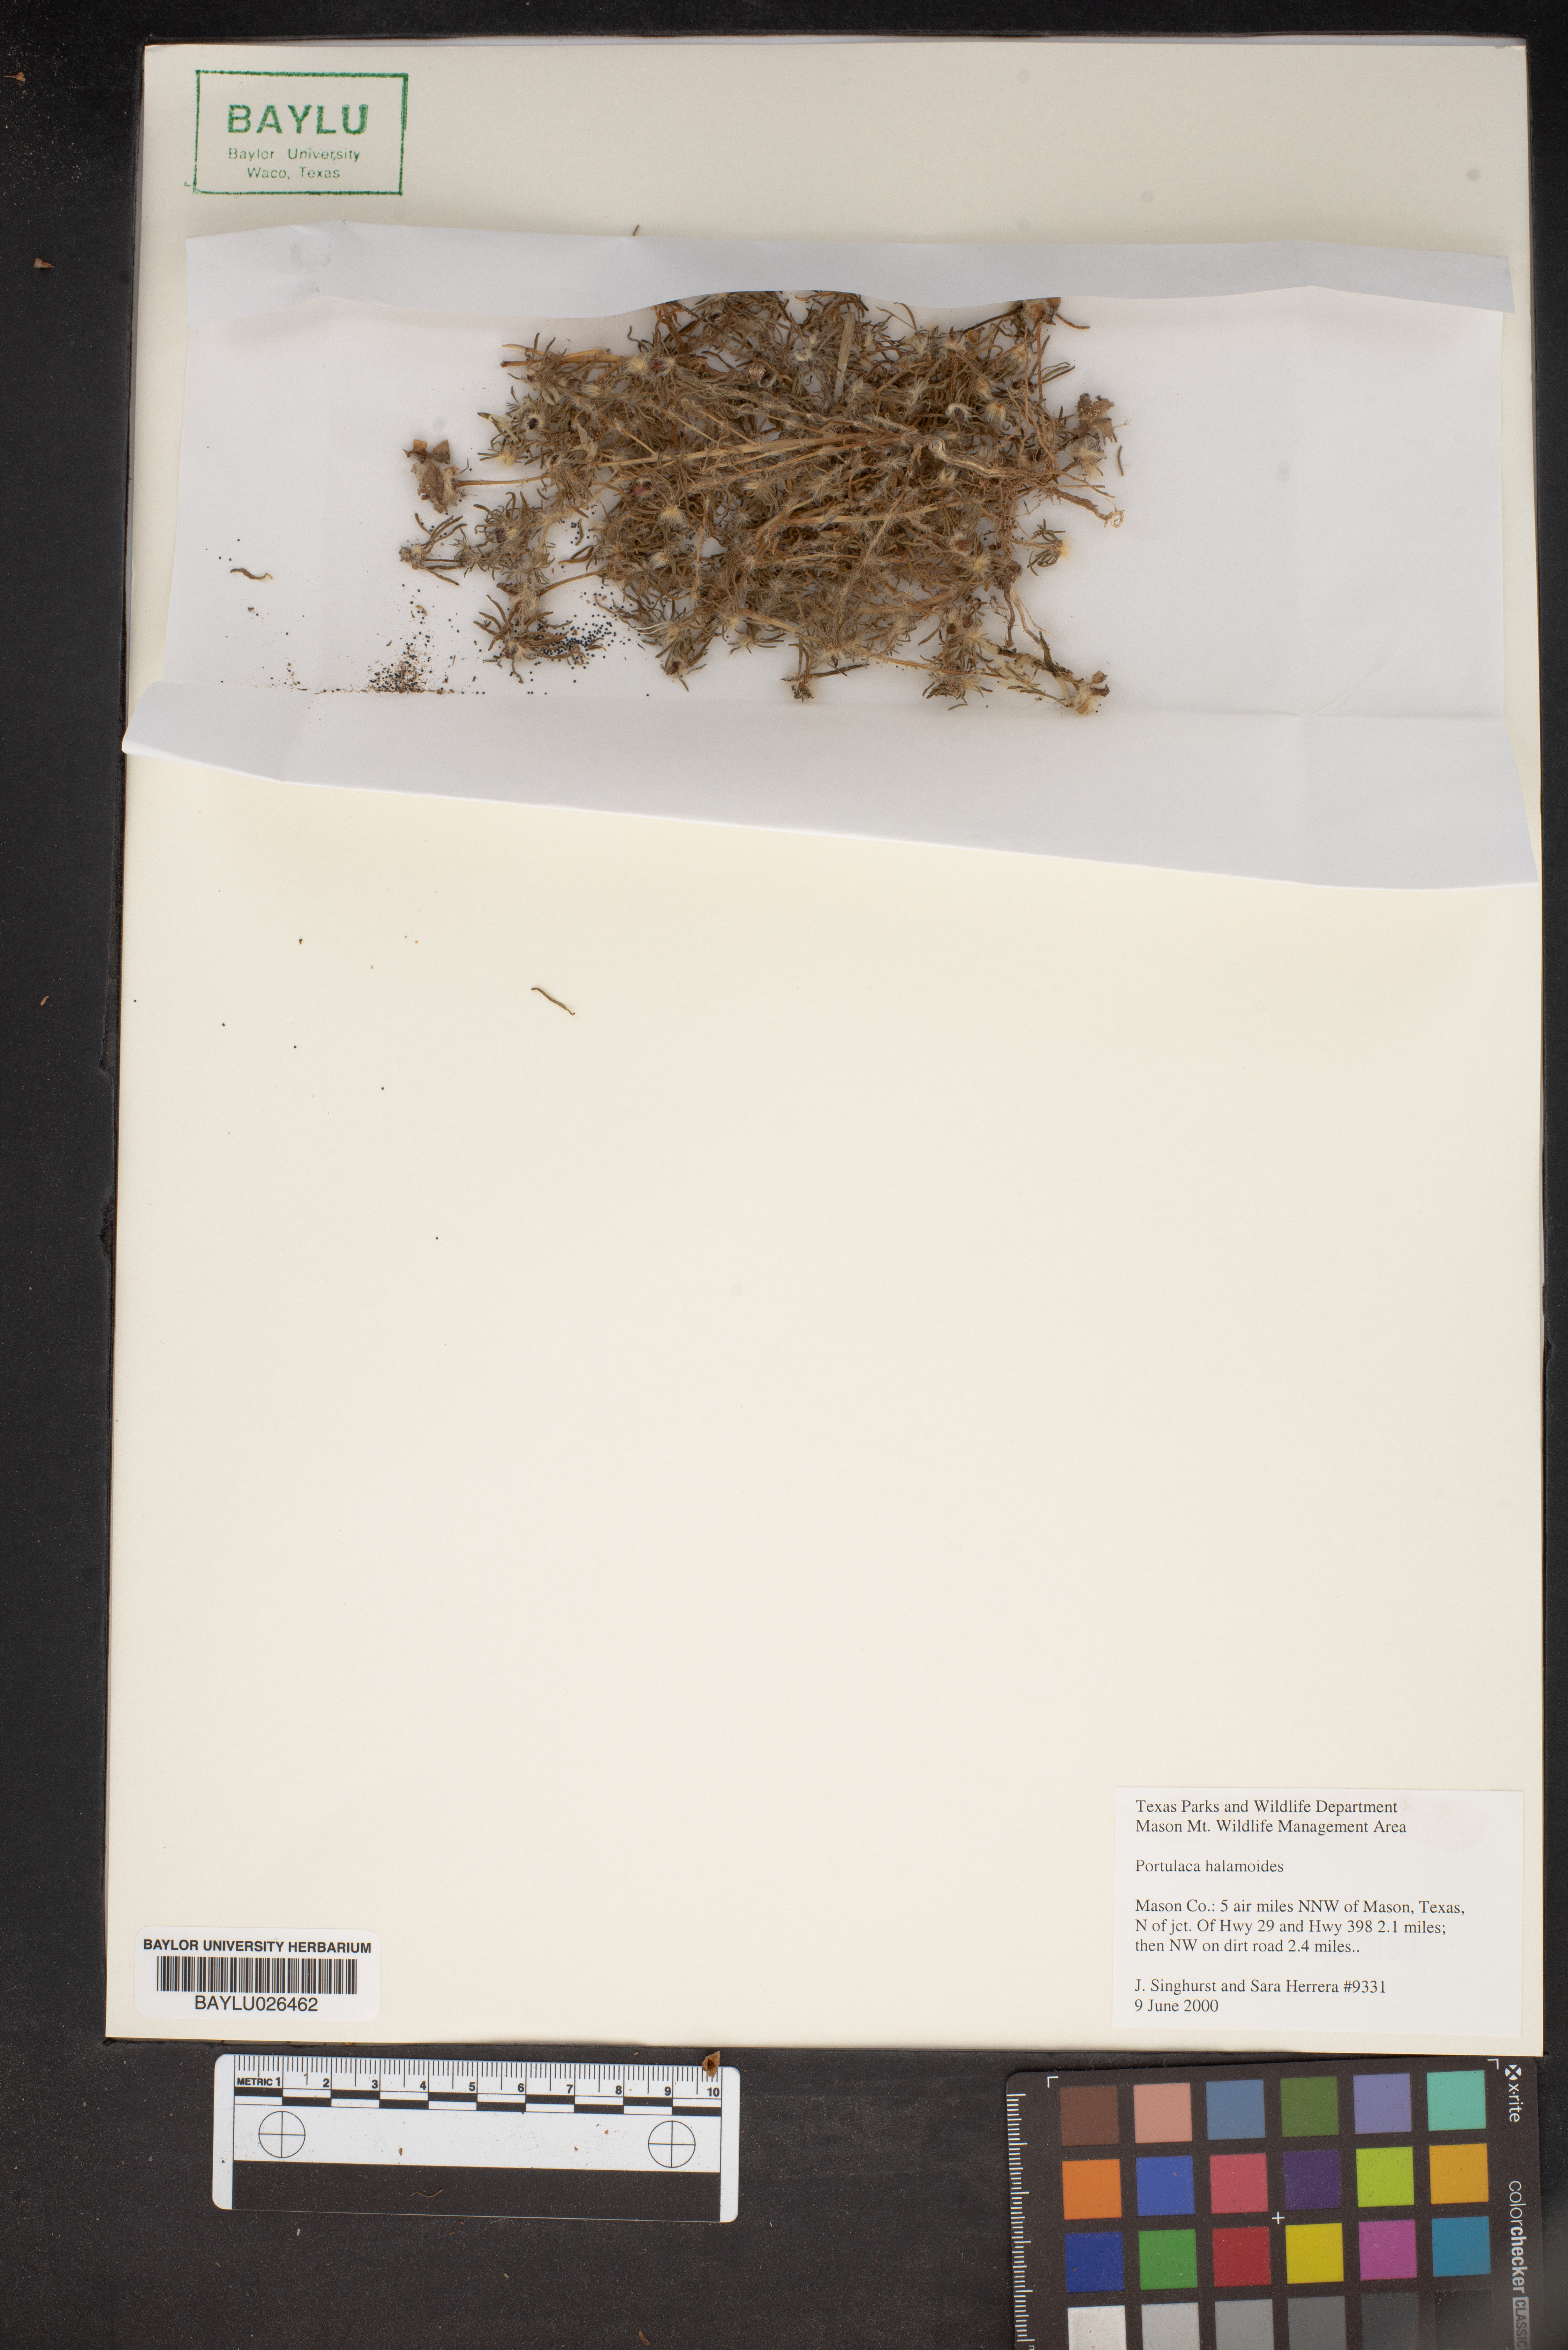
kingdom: Plantae
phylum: Tracheophyta
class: Magnoliopsida
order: Caryophyllales
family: Portulacaceae
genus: Portulaca
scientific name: Portulaca halimoides
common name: Silk cotton purslane
